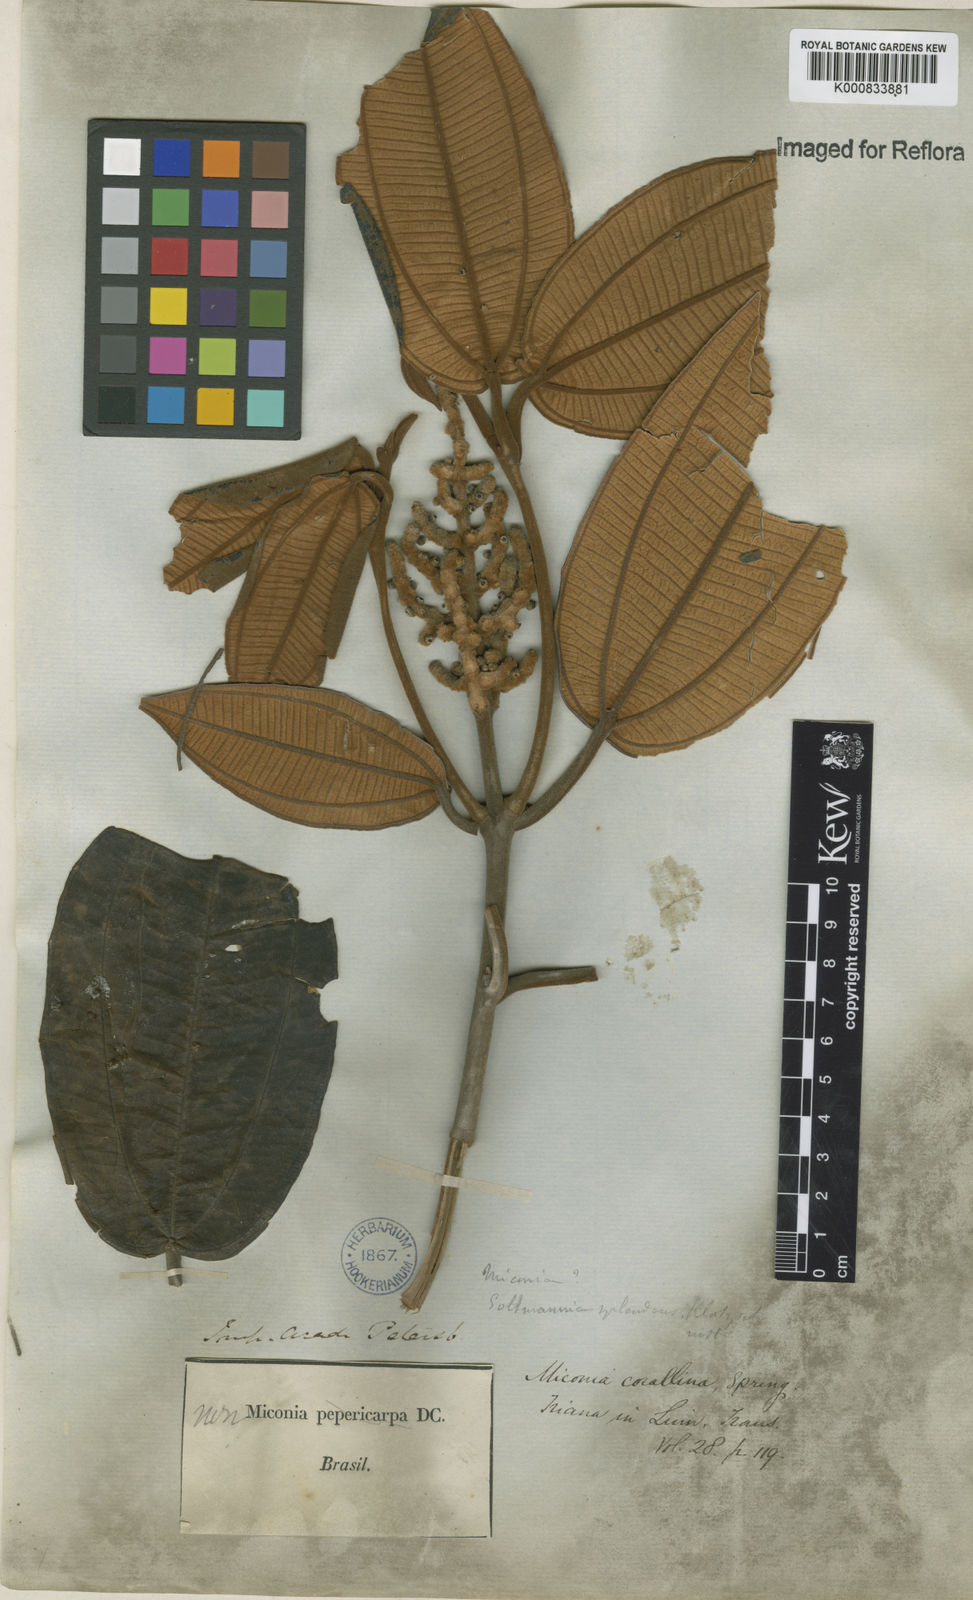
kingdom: Plantae
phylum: Tracheophyta
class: Magnoliopsida
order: Myrtales
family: Melastomataceae
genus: Miconia
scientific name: Miconia
